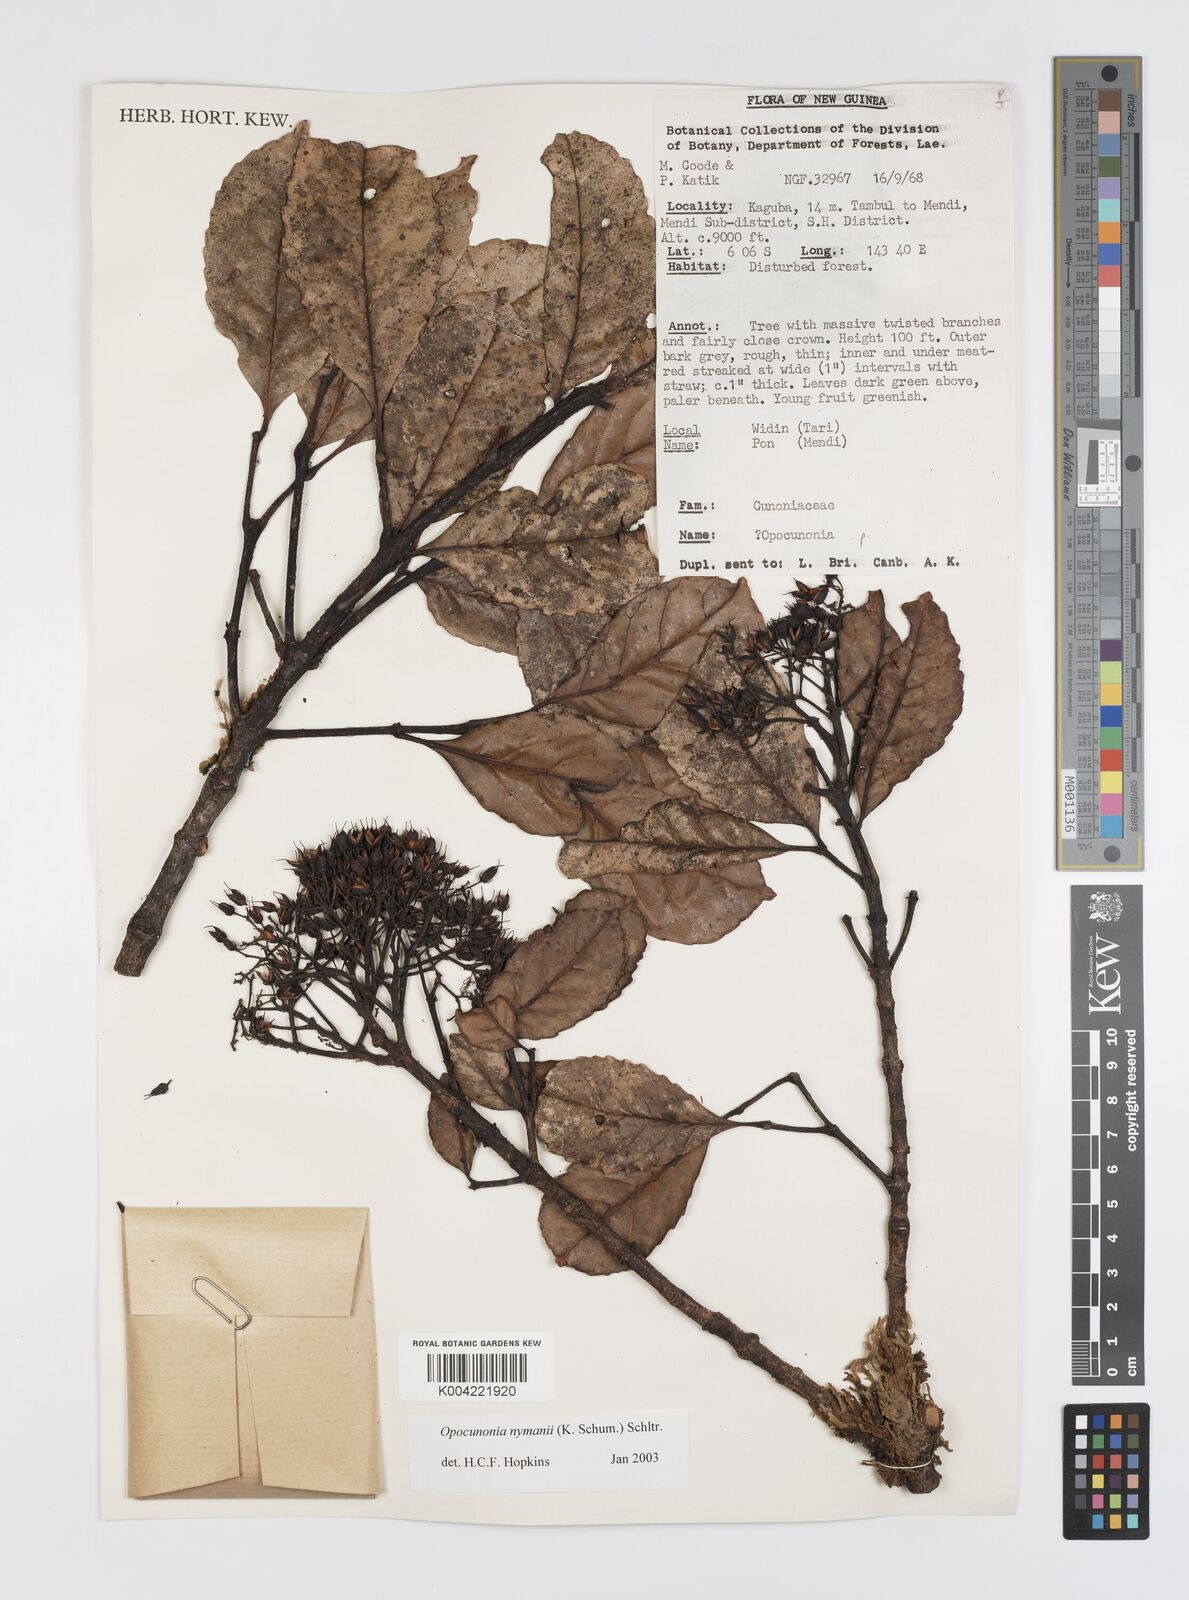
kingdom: Plantae
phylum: Tracheophyta
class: Magnoliopsida
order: Oxalidales
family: Cunoniaceae
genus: Opocunonia
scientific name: Opocunonia nymanii
